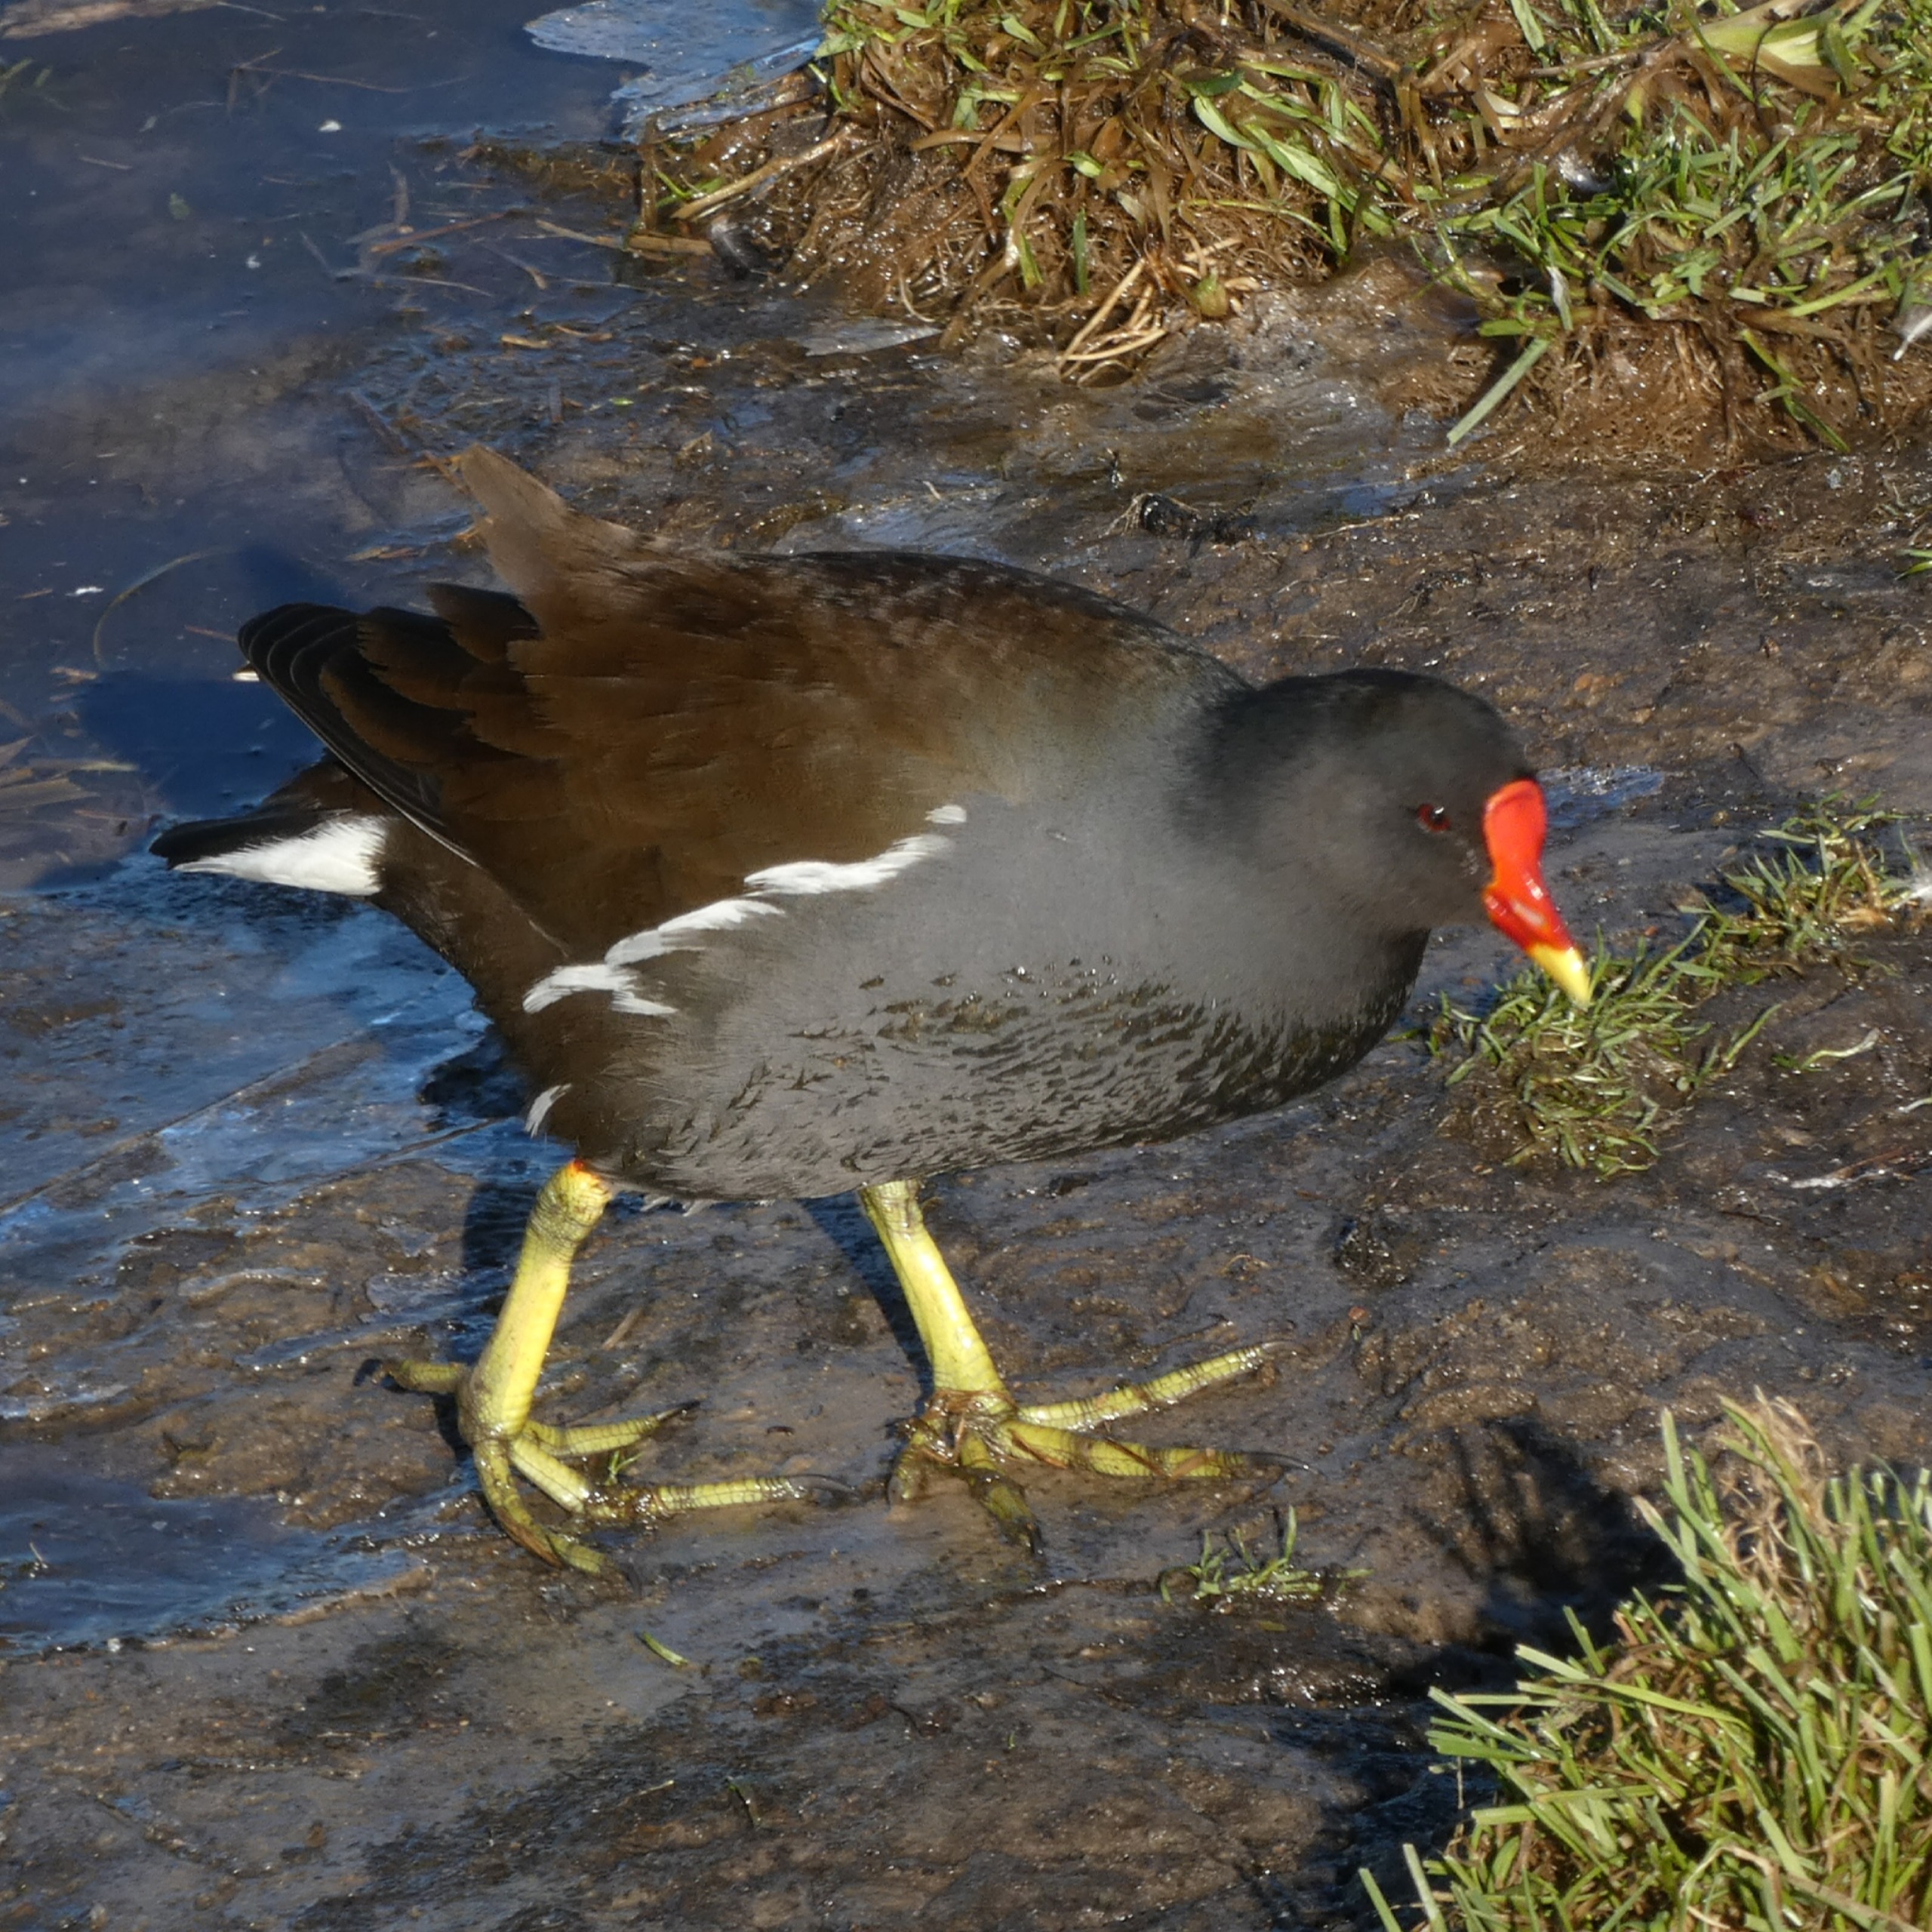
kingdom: Animalia
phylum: Chordata
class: Aves
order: Gruiformes
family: Rallidae
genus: Gallinula
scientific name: Gallinula chloropus
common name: Grønbenet rørhøne
